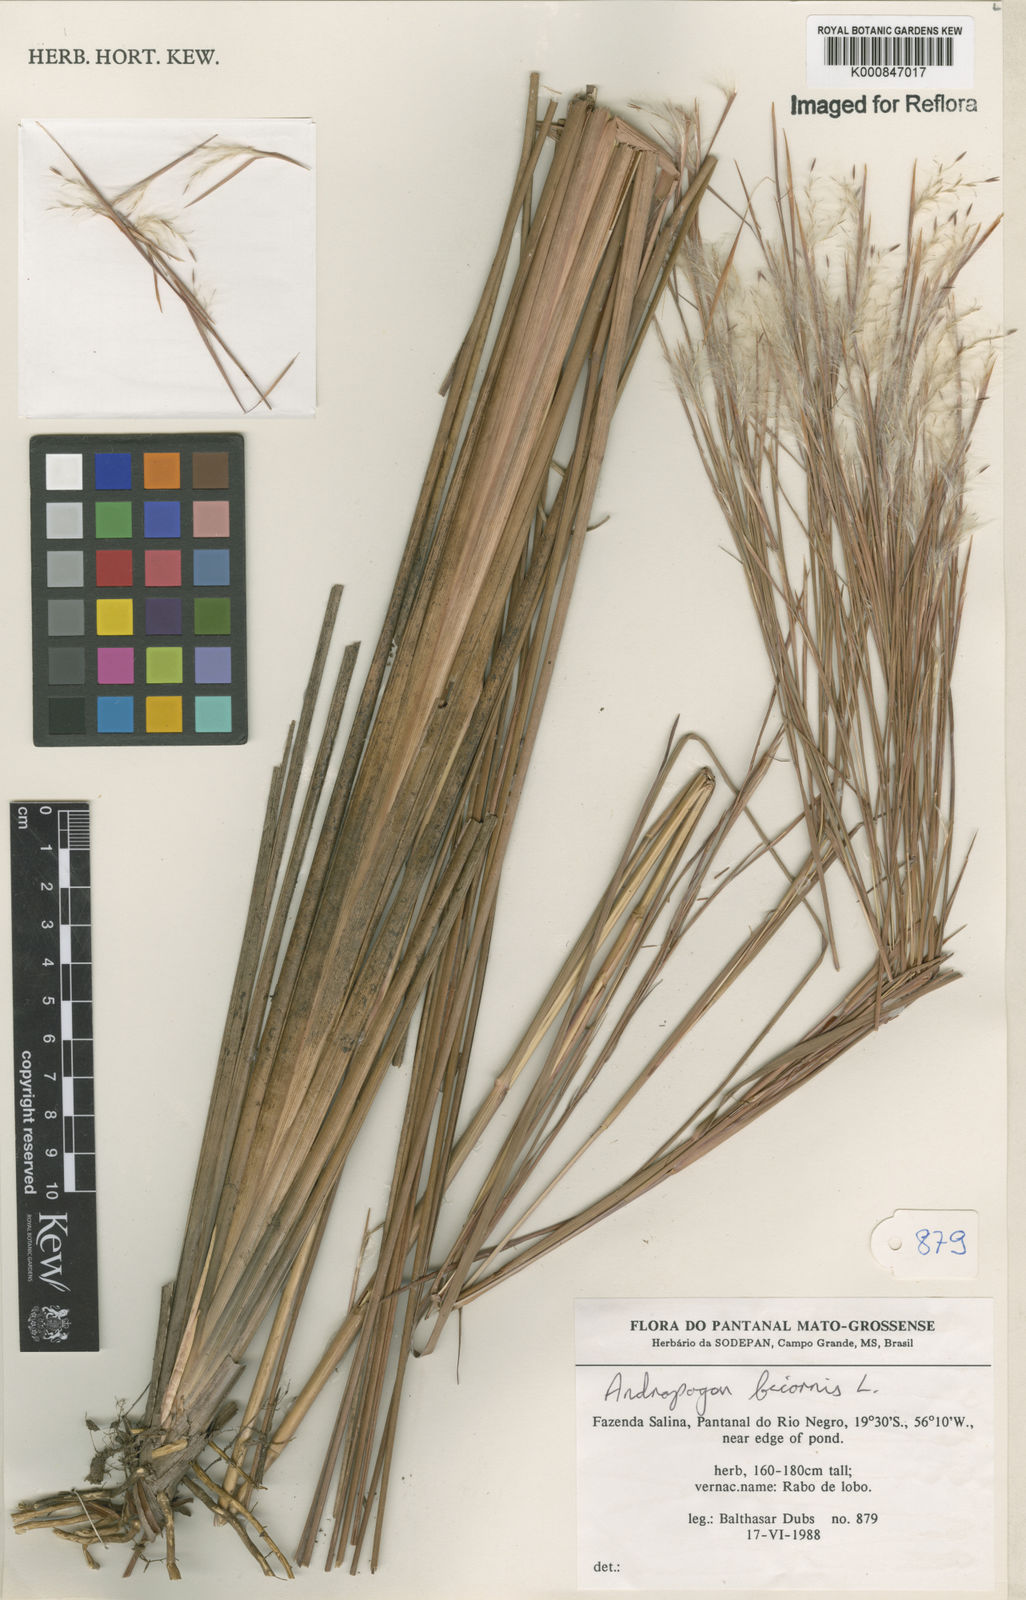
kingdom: Plantae
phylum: Tracheophyta
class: Liliopsida
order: Poales
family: Poaceae
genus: Andropogon
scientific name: Andropogon
